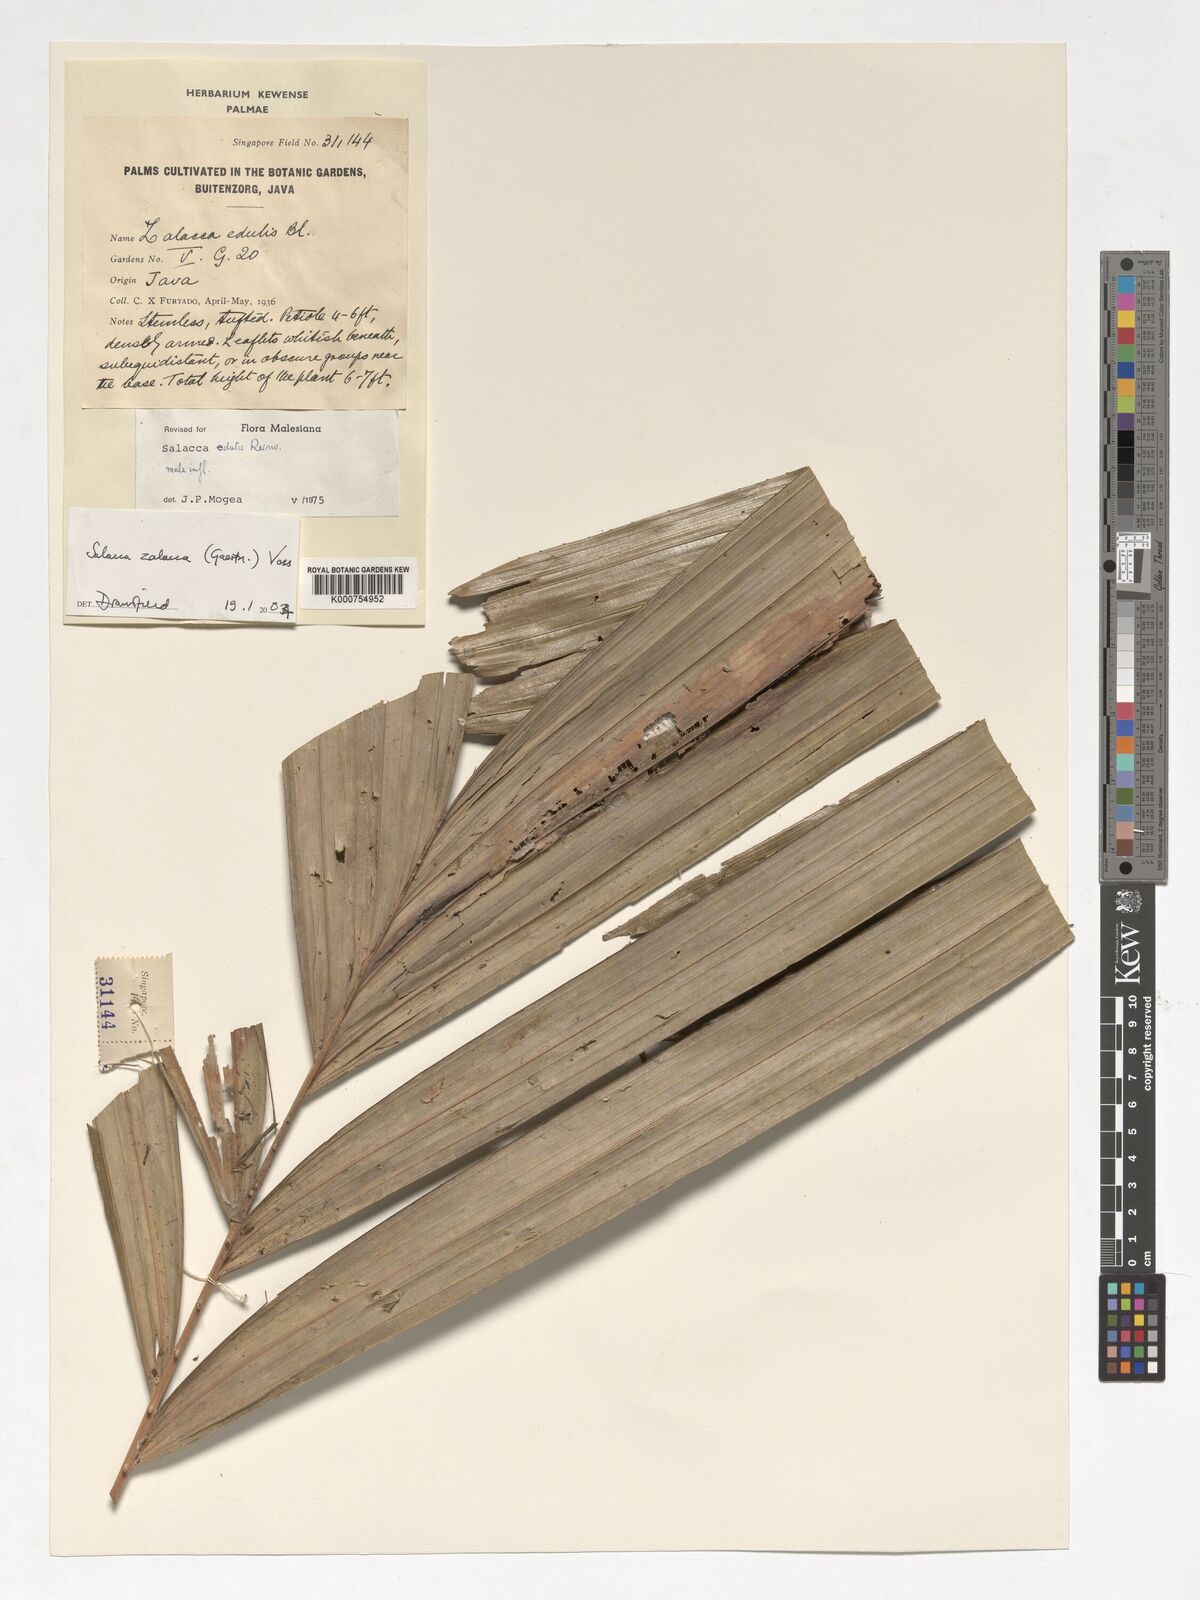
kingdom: Plantae
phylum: Tracheophyta
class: Liliopsida
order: Arecales
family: Arecaceae
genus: Salacca
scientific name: Salacca zalacca
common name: Salak
